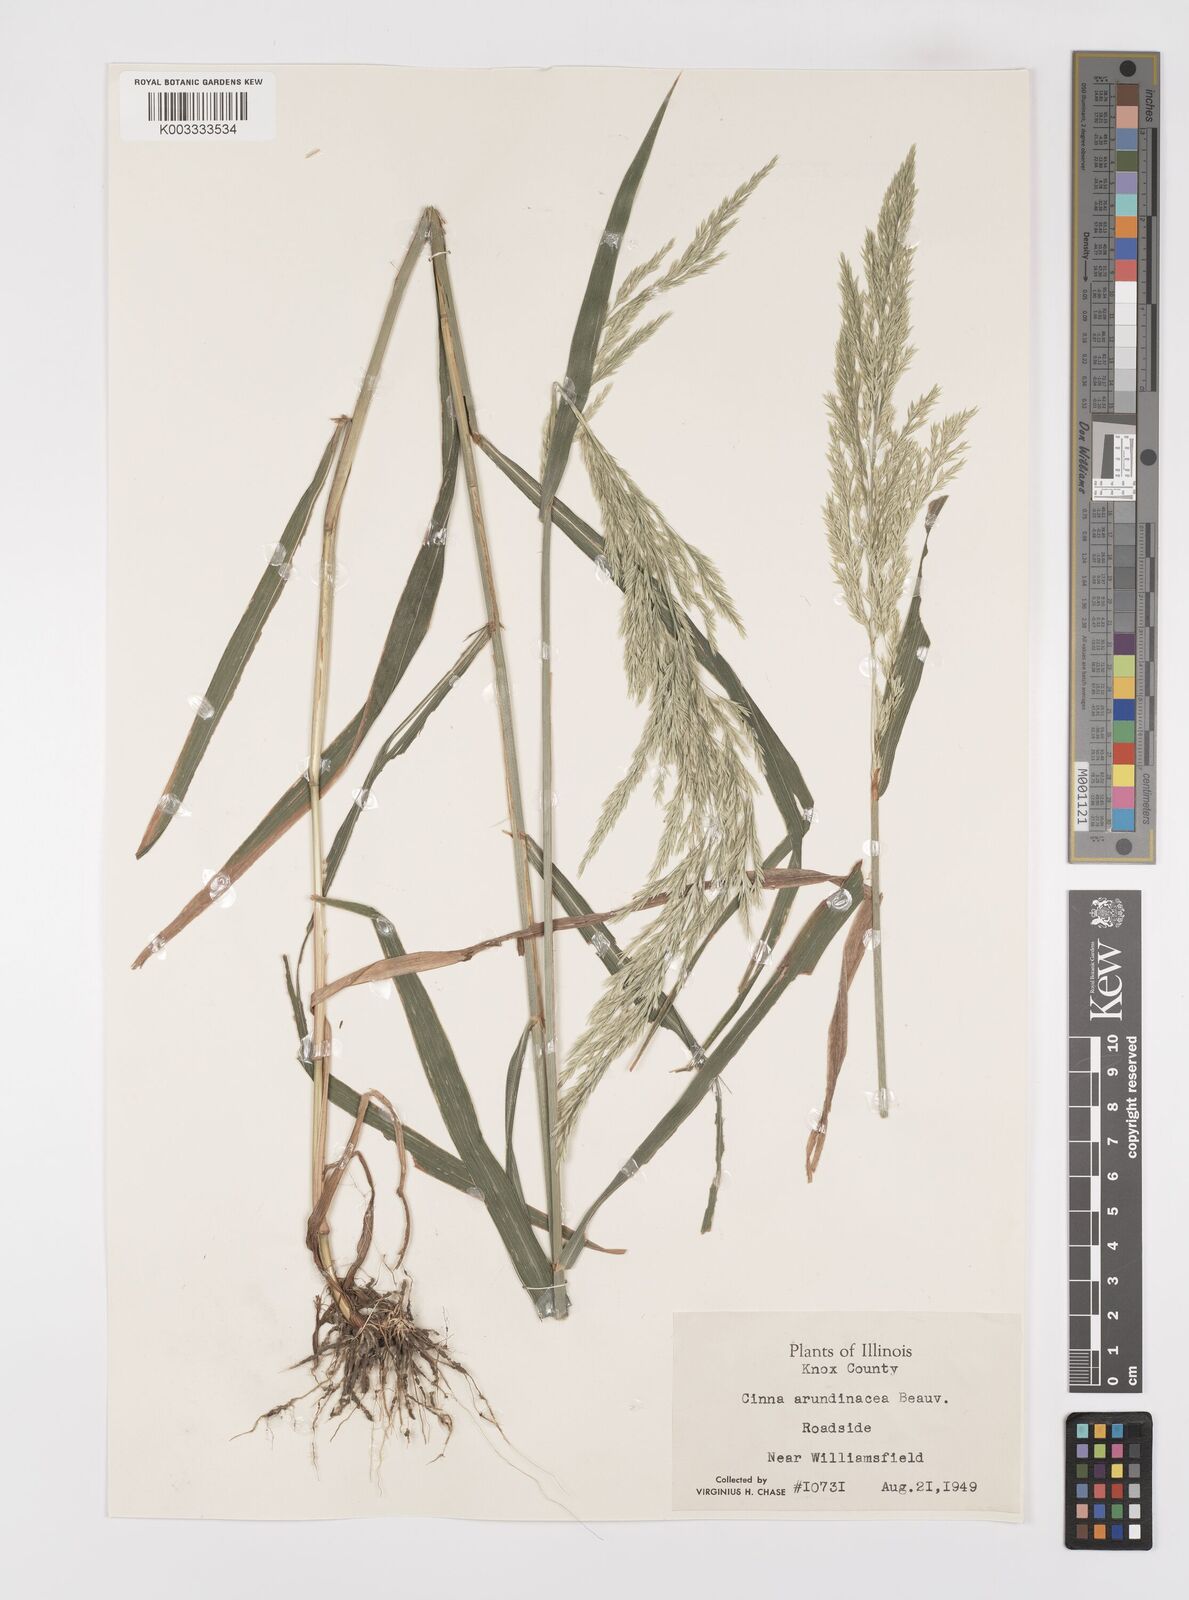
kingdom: Plantae
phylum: Tracheophyta
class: Liliopsida
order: Poales
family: Poaceae
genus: Cinna
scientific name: Cinna
